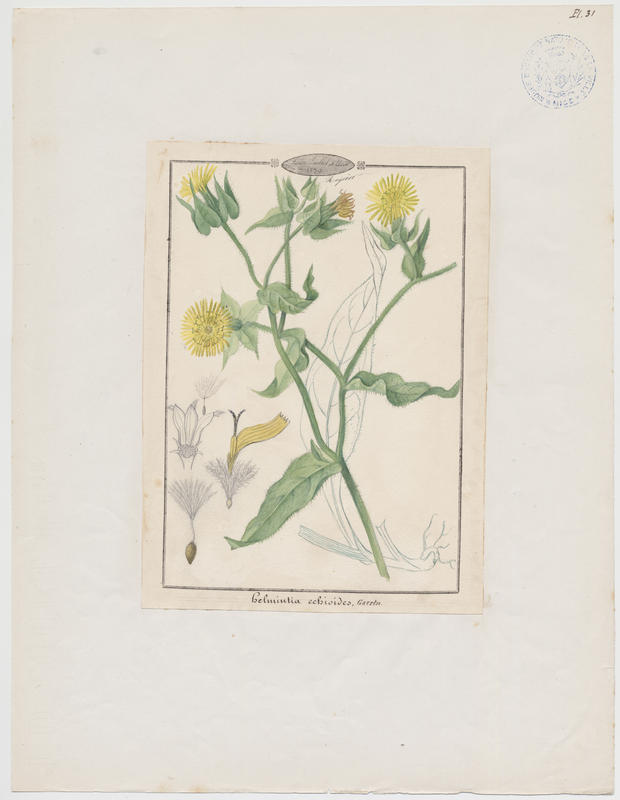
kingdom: Plantae
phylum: Tracheophyta
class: Magnoliopsida
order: Asterales
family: Asteraceae
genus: Helminthotheca
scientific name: Helminthotheca echioides
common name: Ox-tongue
